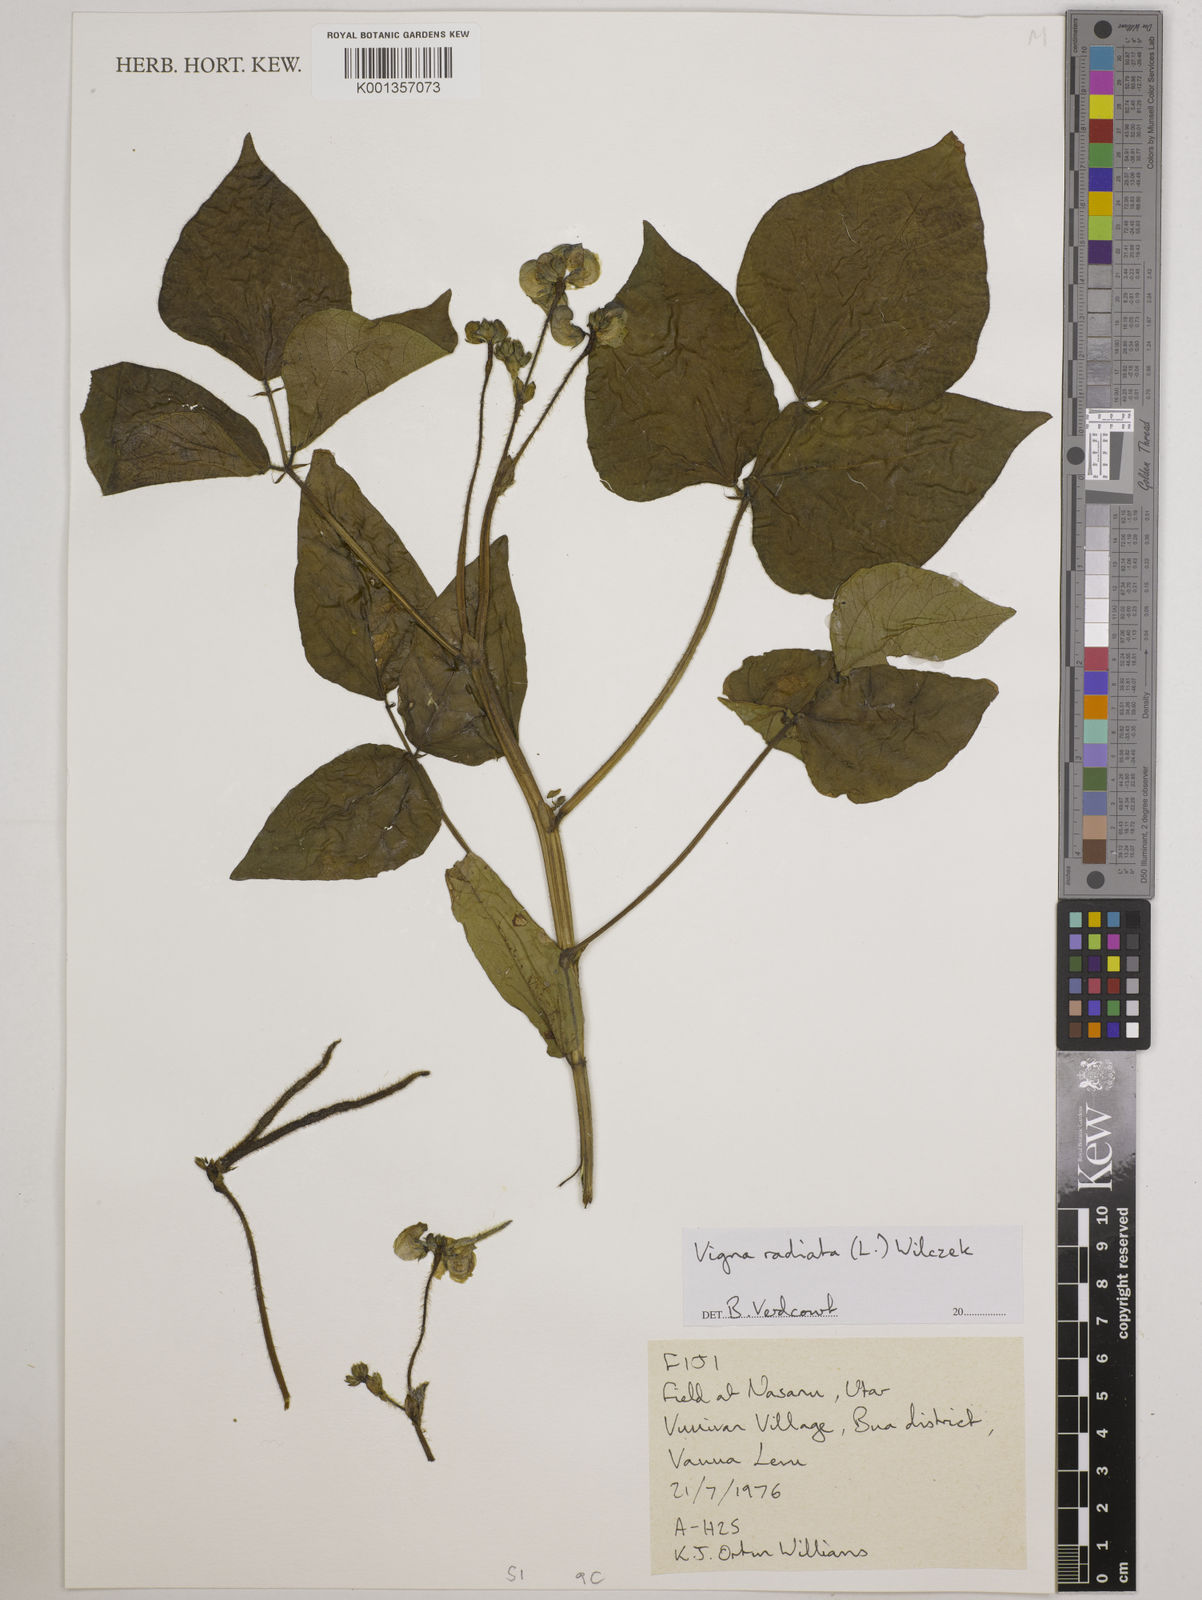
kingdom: Plantae
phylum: Tracheophyta
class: Magnoliopsida
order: Fabales
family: Fabaceae
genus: Vigna
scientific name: Vigna radiata
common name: Mung-bean
